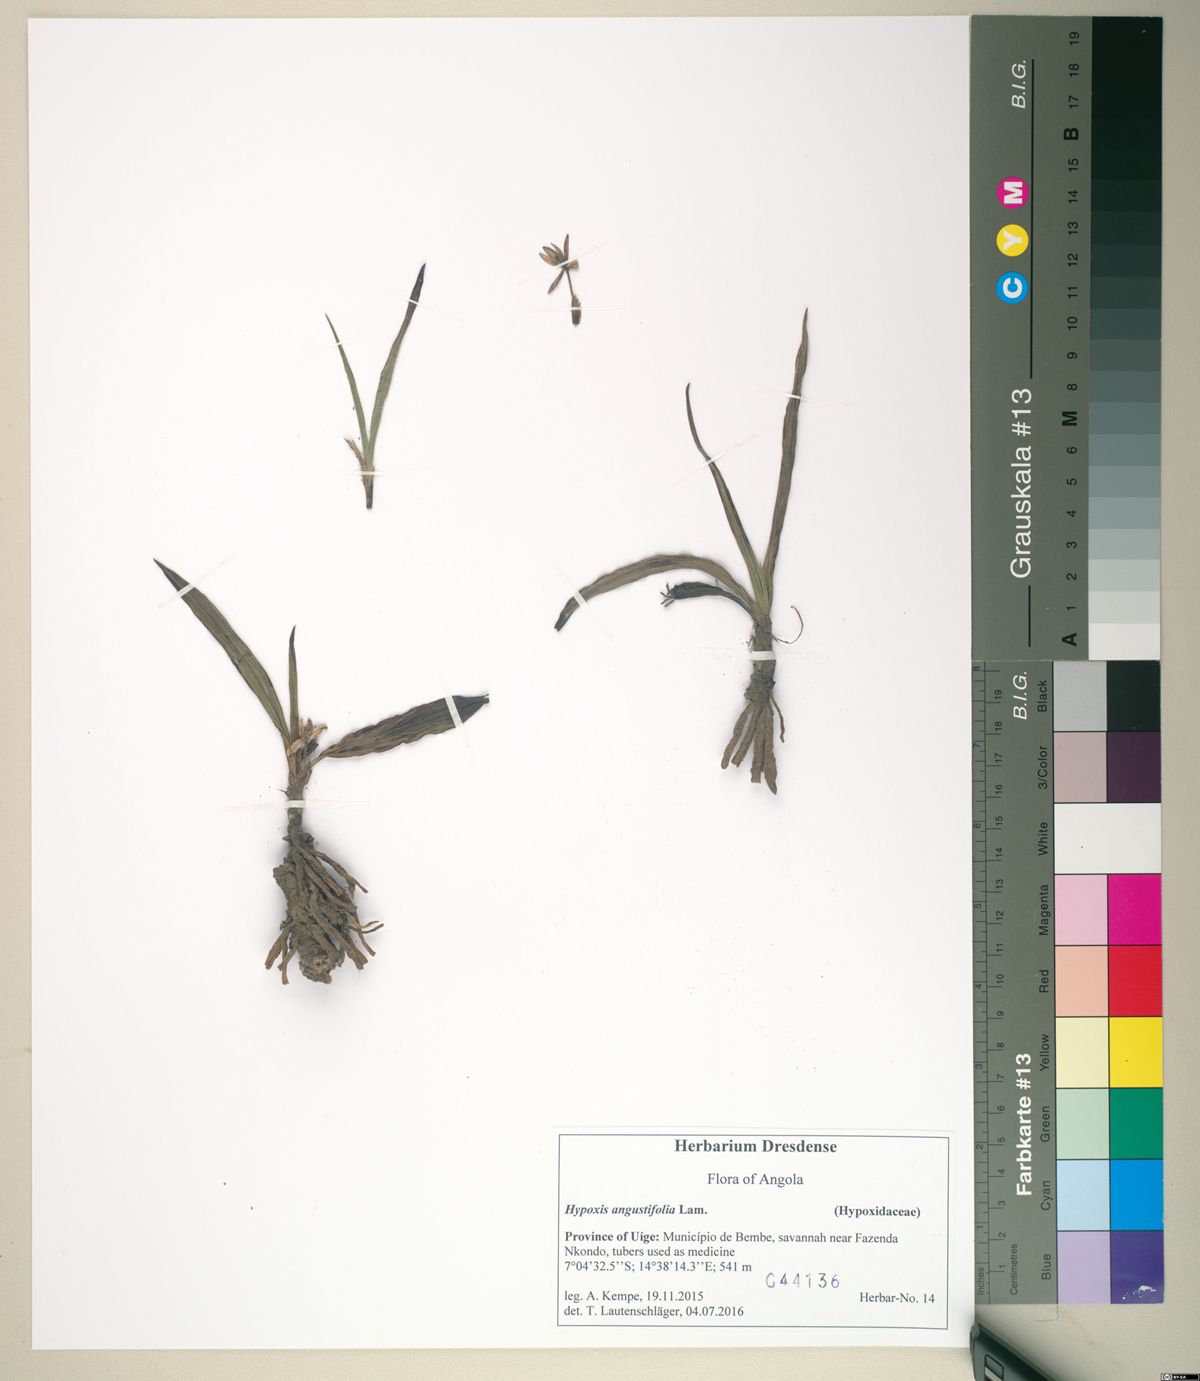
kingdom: Plantae
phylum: Tracheophyta
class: Liliopsida
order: Asparagales
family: Hypoxidaceae
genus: Curculigo
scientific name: Curculigo pilosa
